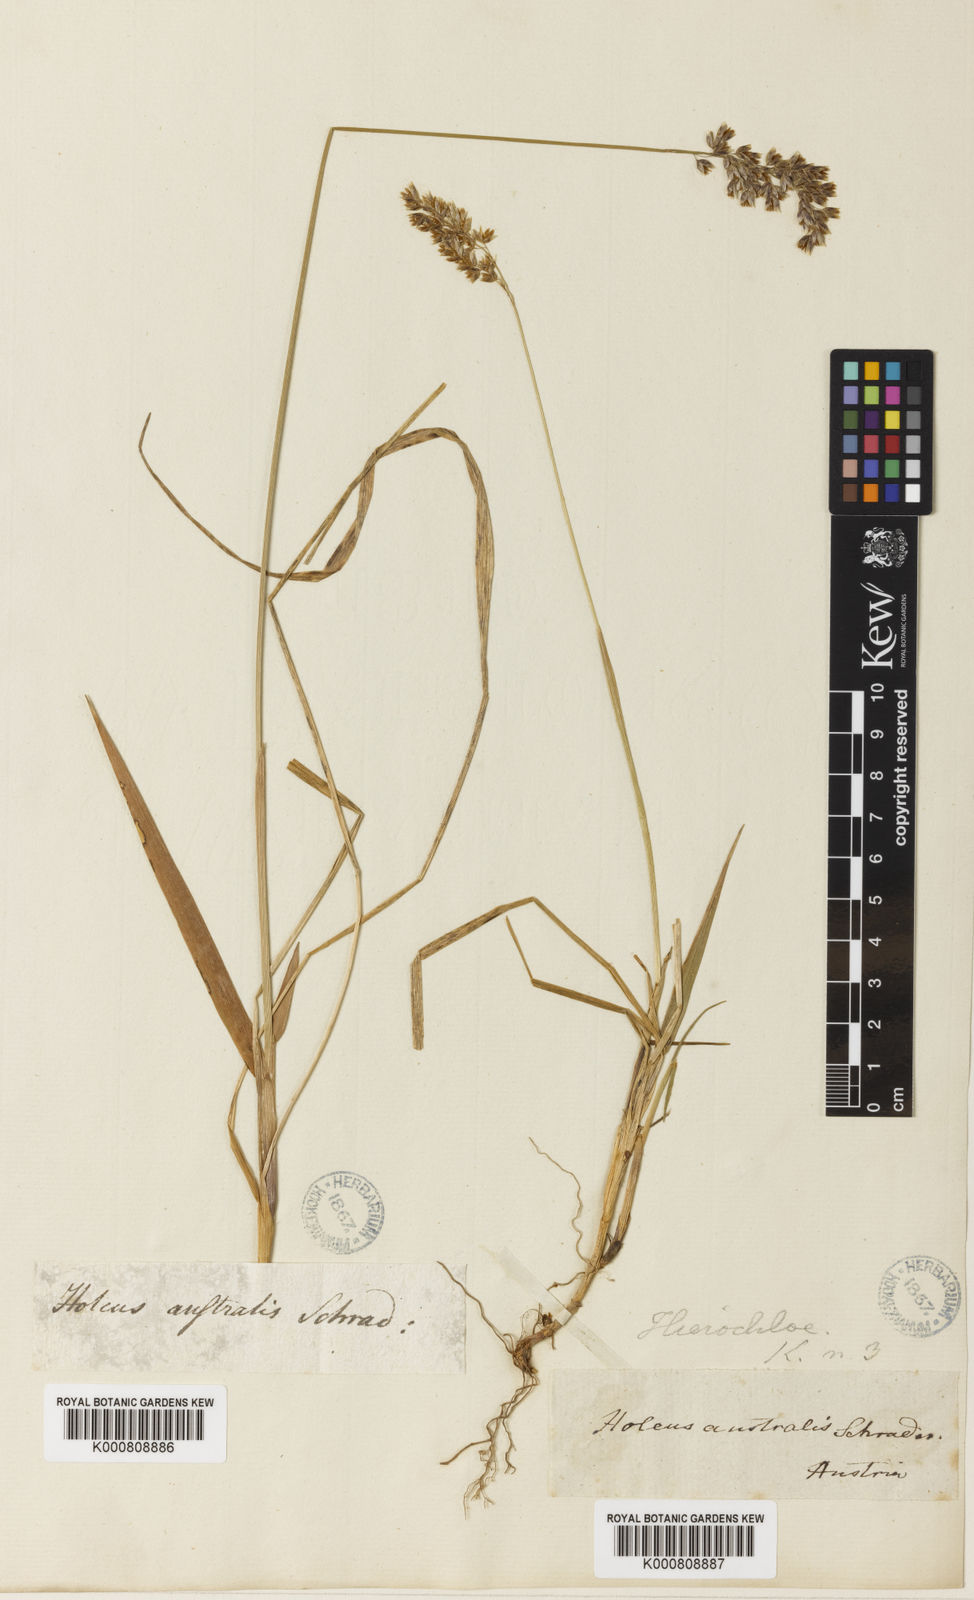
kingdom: Plantae
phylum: Tracheophyta
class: Liliopsida
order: Poales
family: Poaceae
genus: Anthoxanthum
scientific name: Anthoxanthum australe
